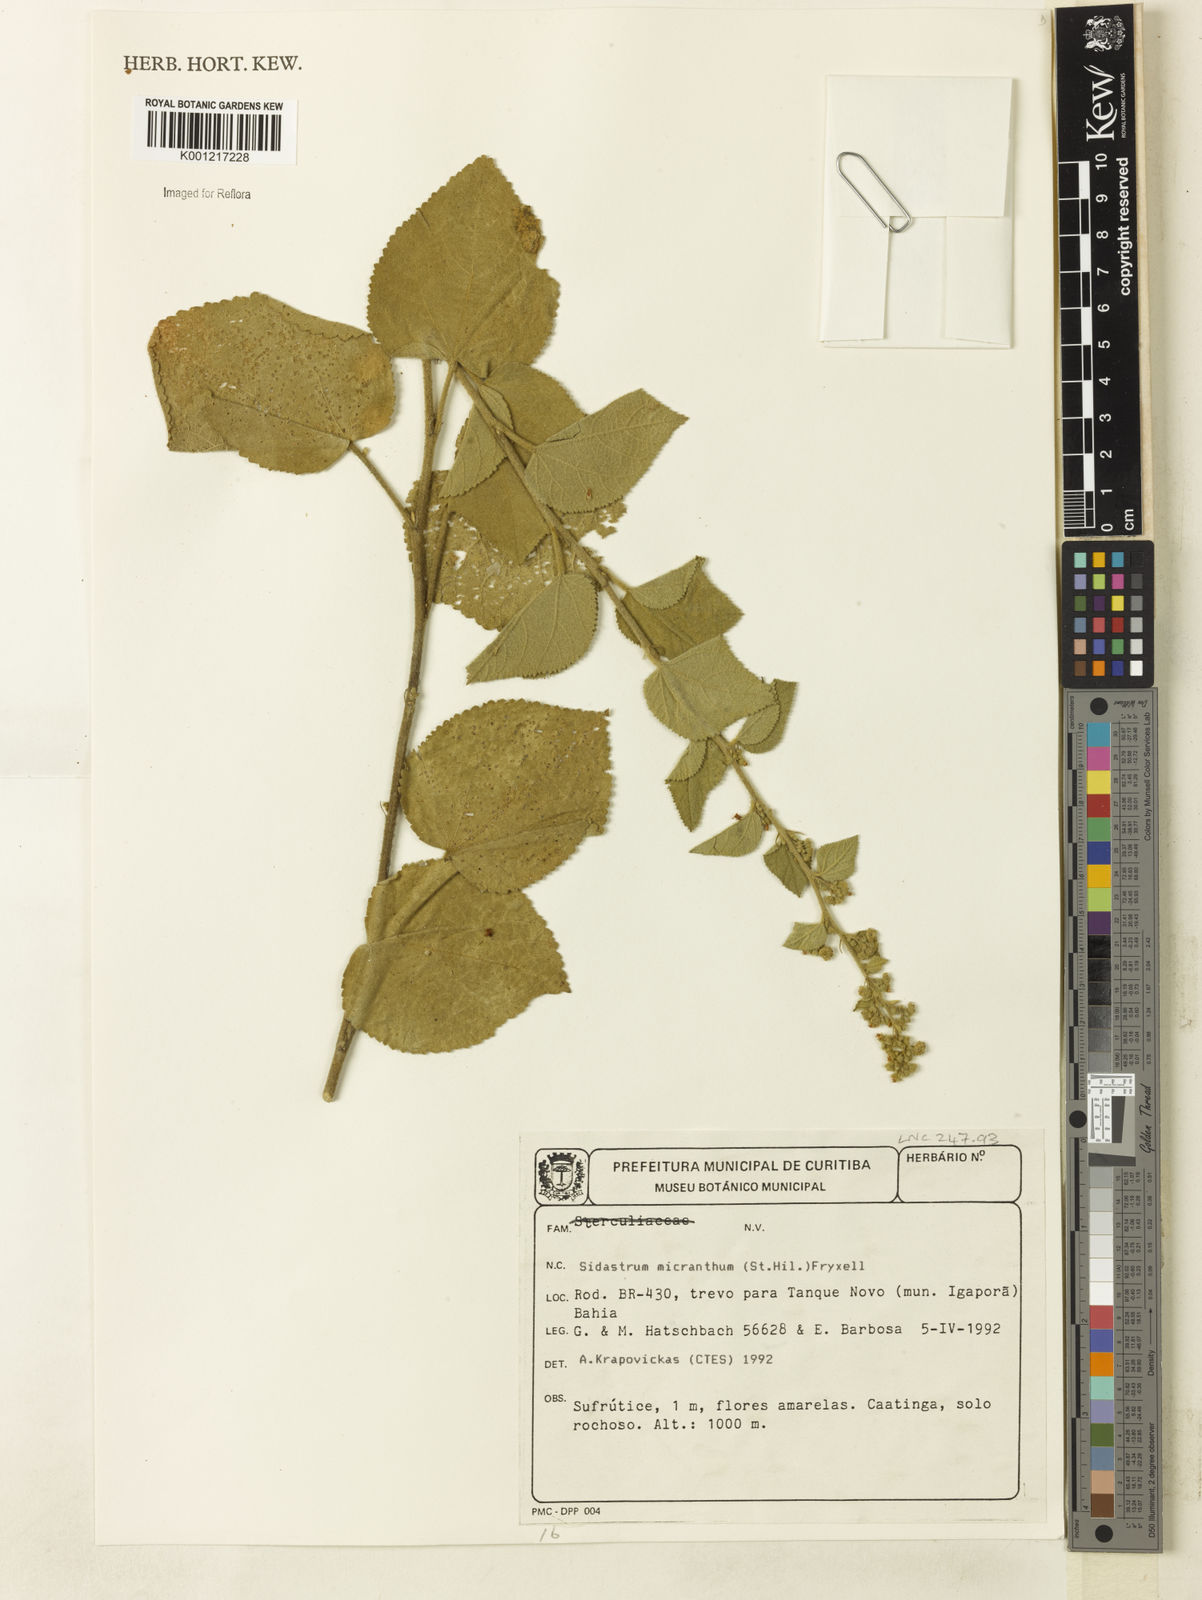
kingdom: Plantae
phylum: Tracheophyta
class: Magnoliopsida
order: Malvales
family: Malvaceae
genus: Sidastrum
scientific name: Sidastrum micranthum
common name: Dainty sandmallow
